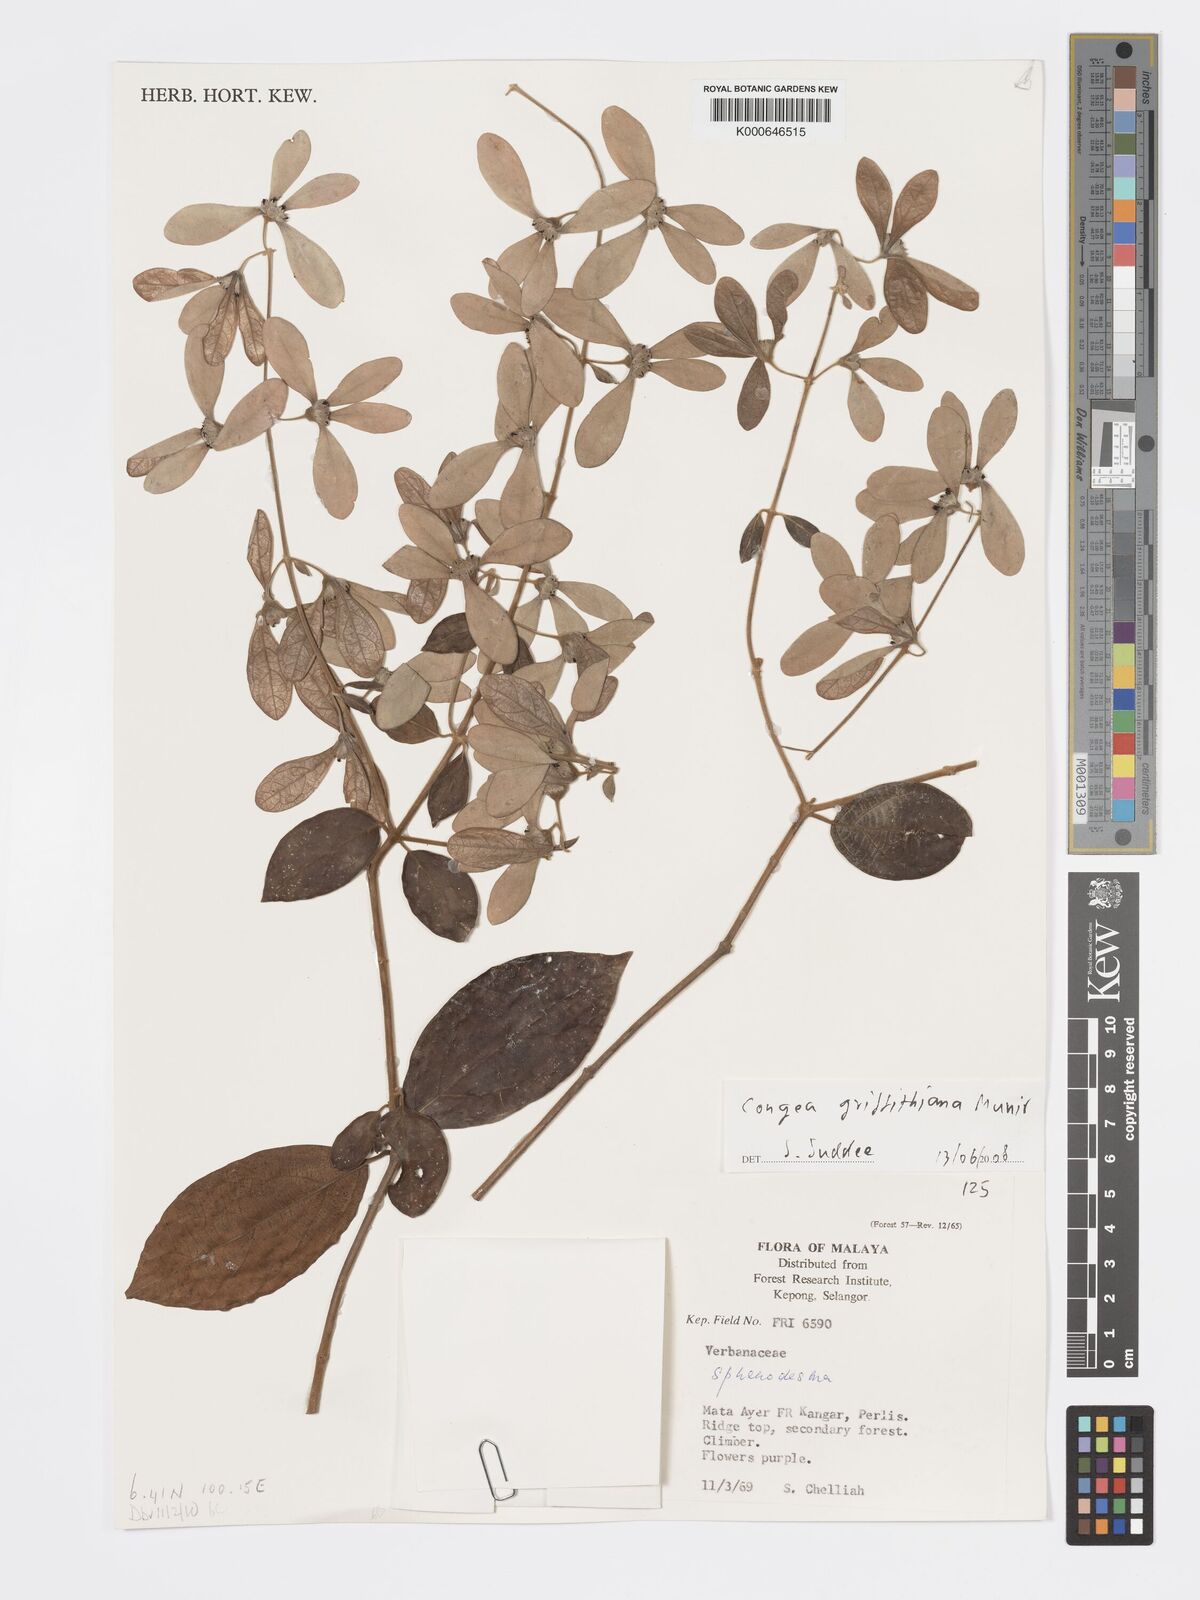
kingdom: Plantae
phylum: Tracheophyta
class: Magnoliopsida
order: Lamiales
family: Lamiaceae
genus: Congea
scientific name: Congea griffithiana
